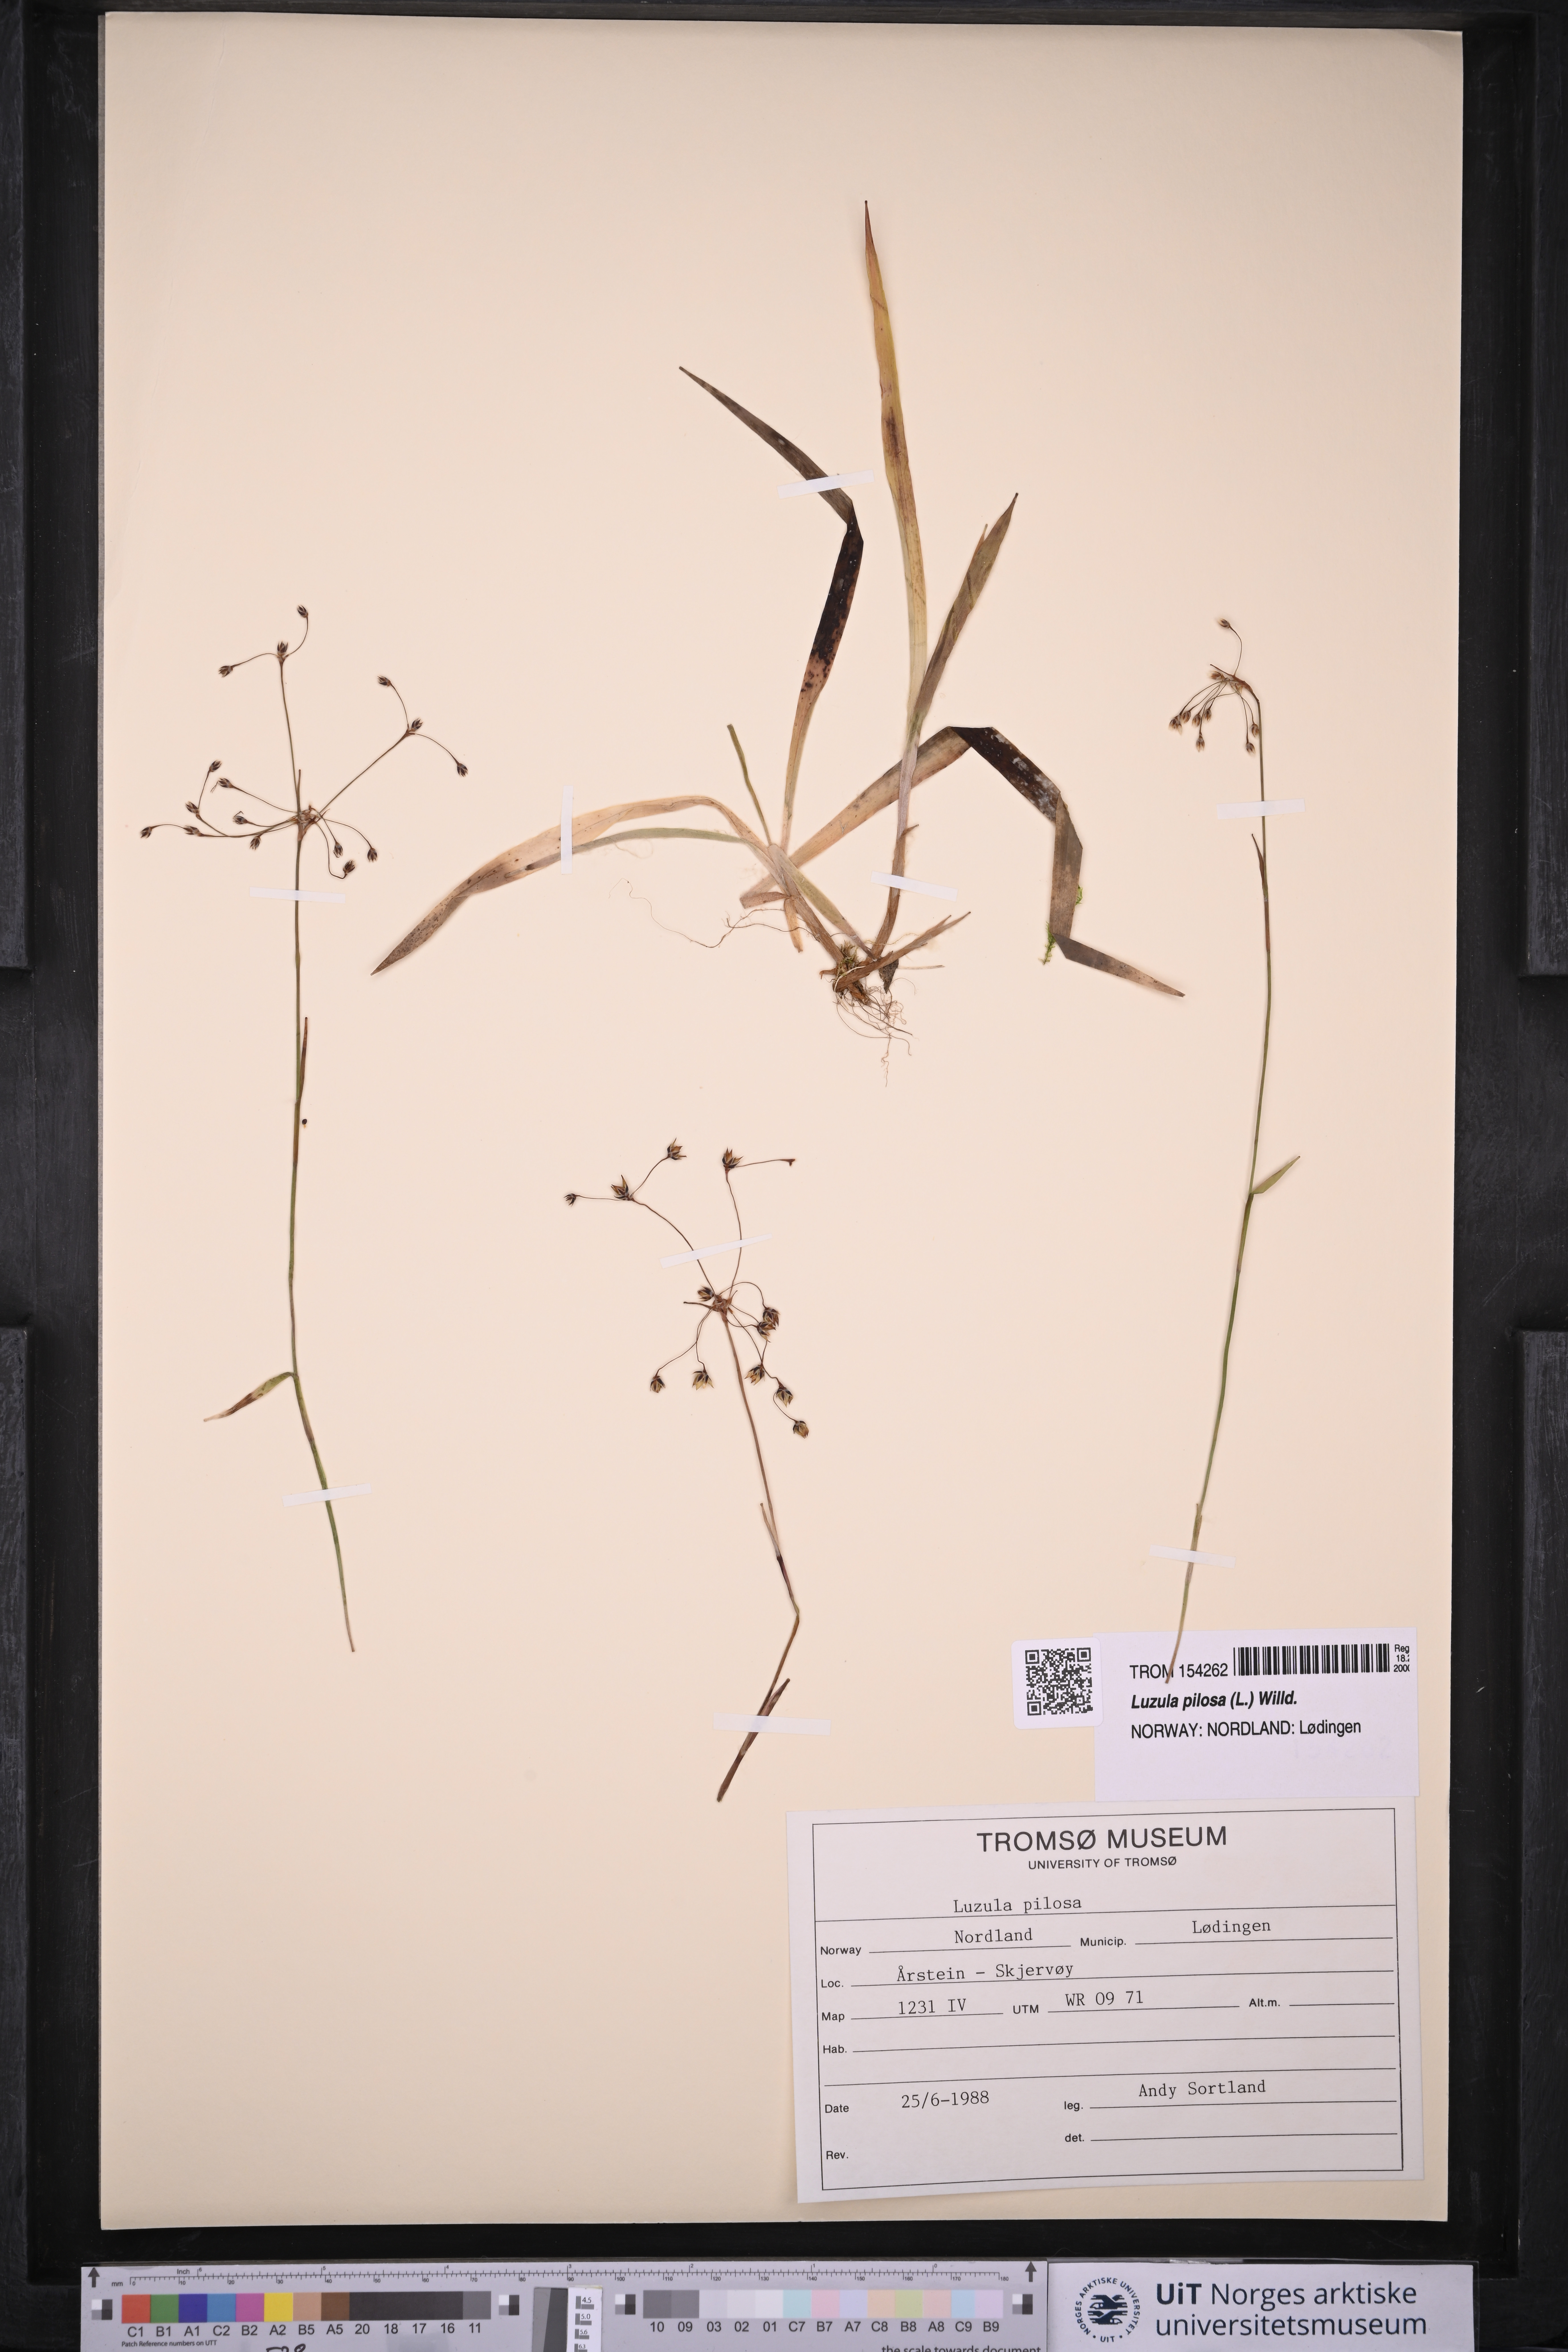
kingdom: Plantae
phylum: Tracheophyta
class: Liliopsida
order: Poales
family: Juncaceae
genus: Luzula
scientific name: Luzula pilosa
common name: Hairy wood-rush
